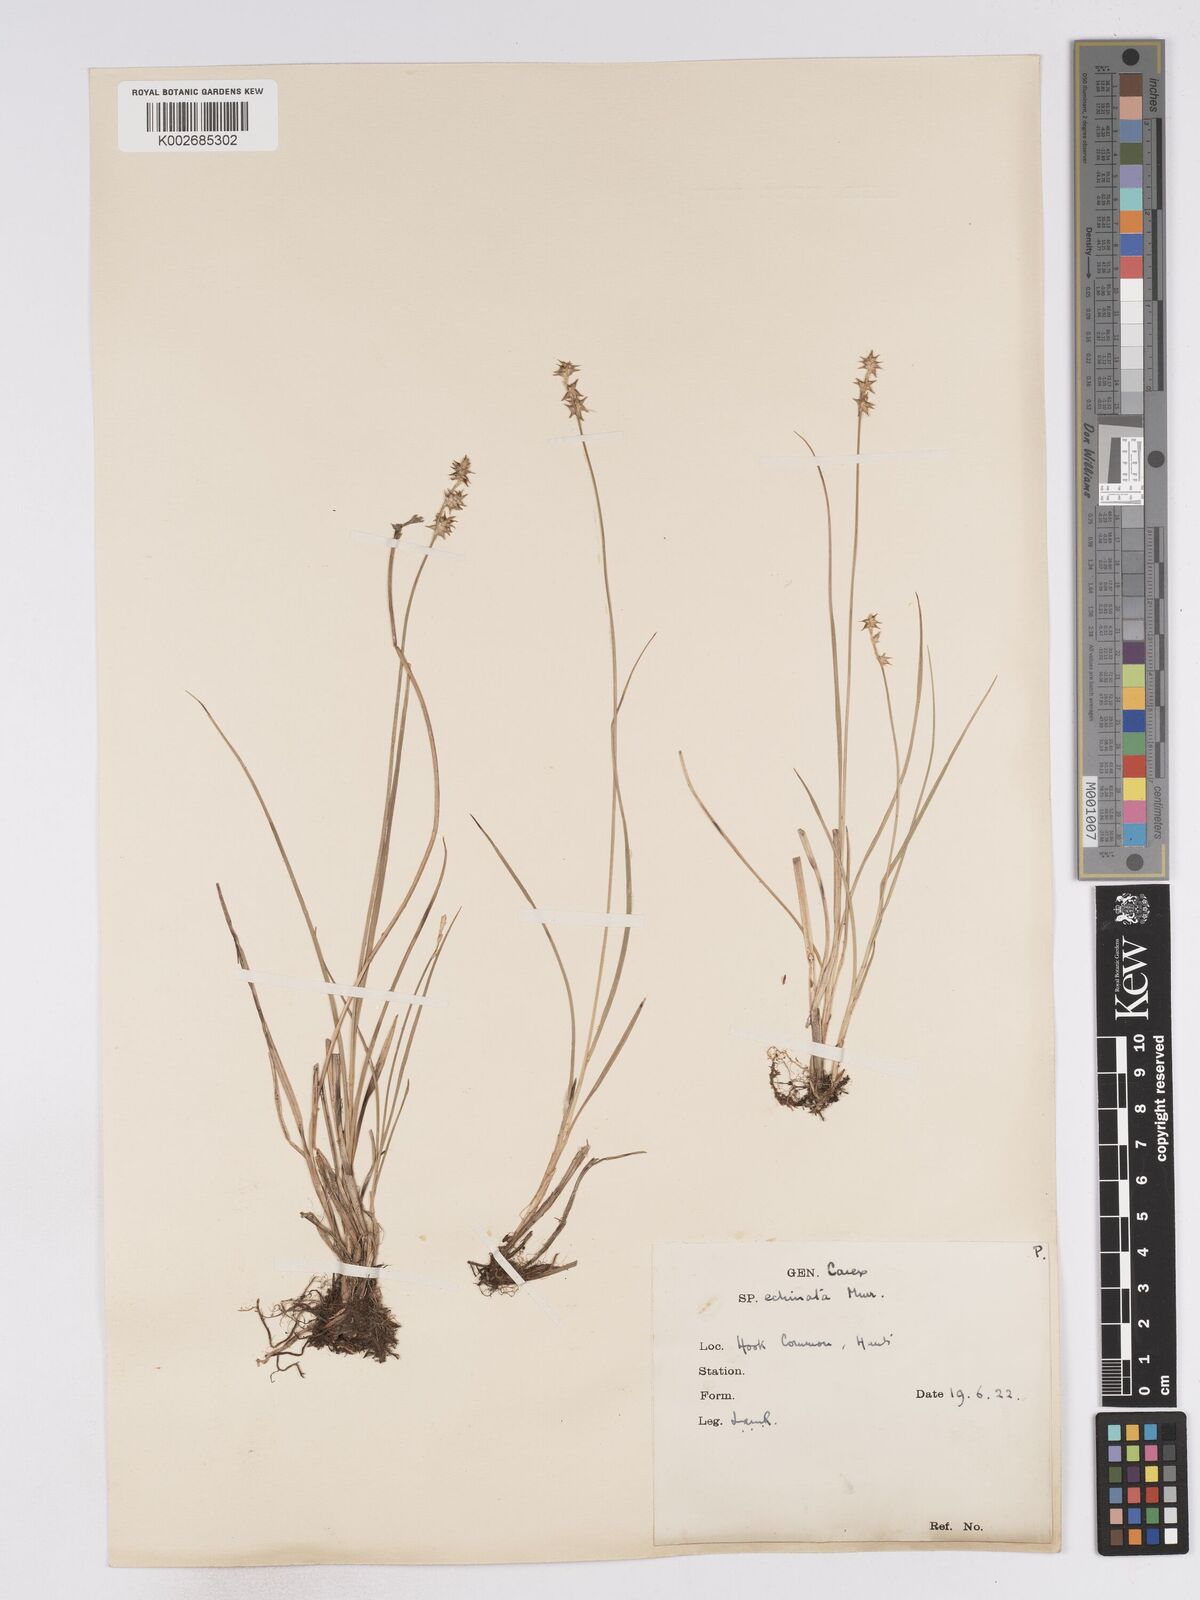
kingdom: Plantae
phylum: Tracheophyta
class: Liliopsida
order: Poales
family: Cyperaceae
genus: Carex
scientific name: Carex echinata
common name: Star sedge
